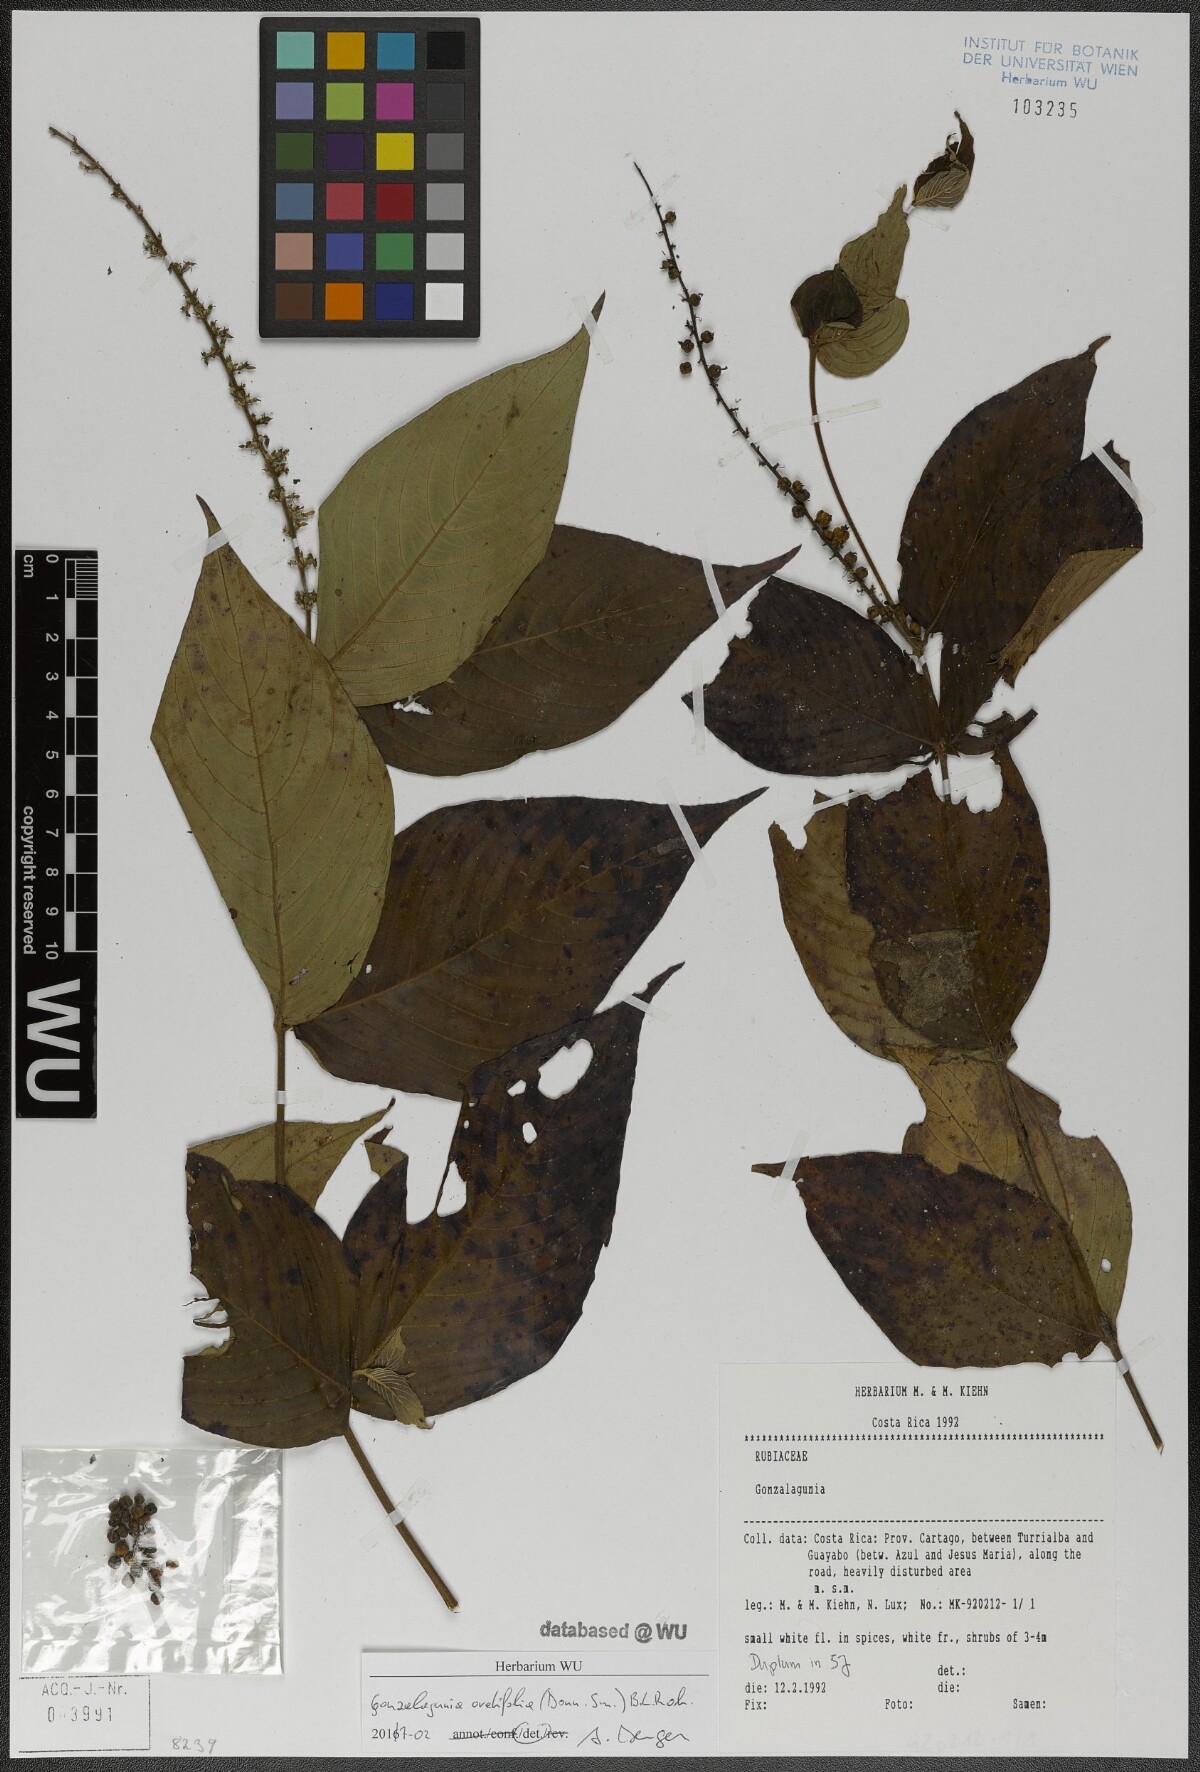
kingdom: Plantae
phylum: Tracheophyta
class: Magnoliopsida
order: Gentianales
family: Rubiaceae
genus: Gonzalagunia
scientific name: Gonzalagunia ovatifolia
